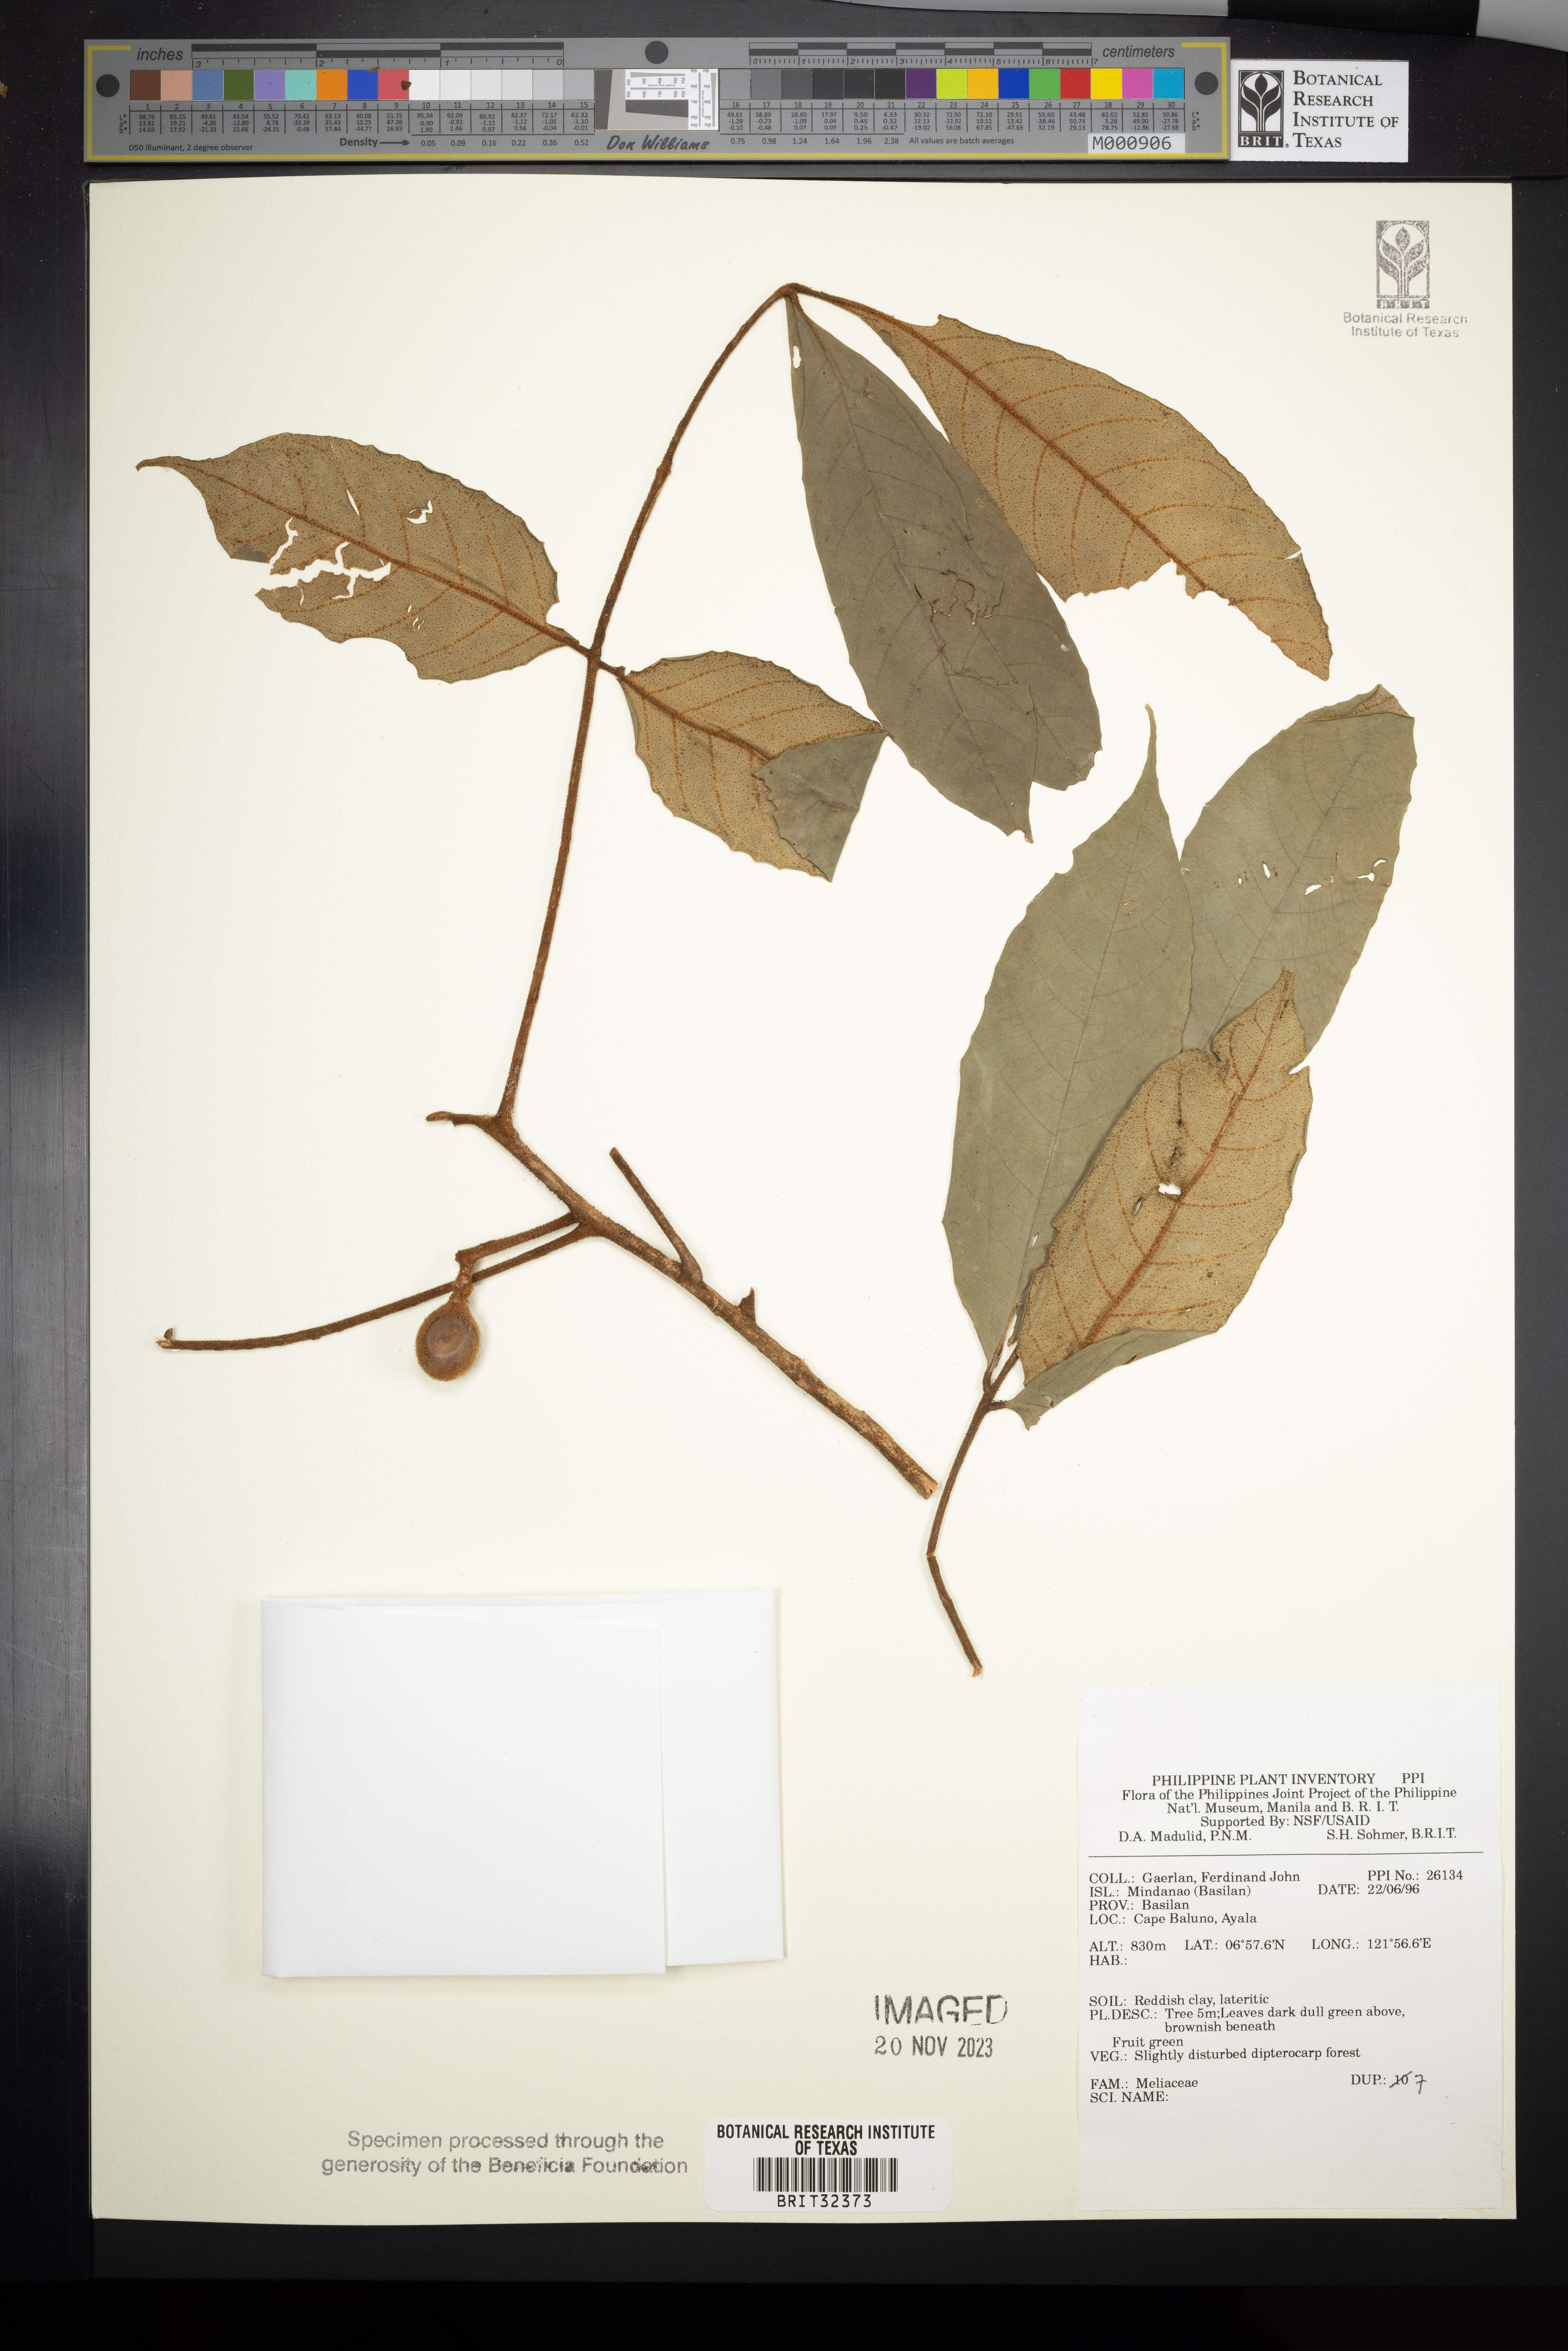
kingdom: Plantae
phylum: Tracheophyta
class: Magnoliopsida
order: Sapindales
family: Meliaceae
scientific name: Meliaceae
